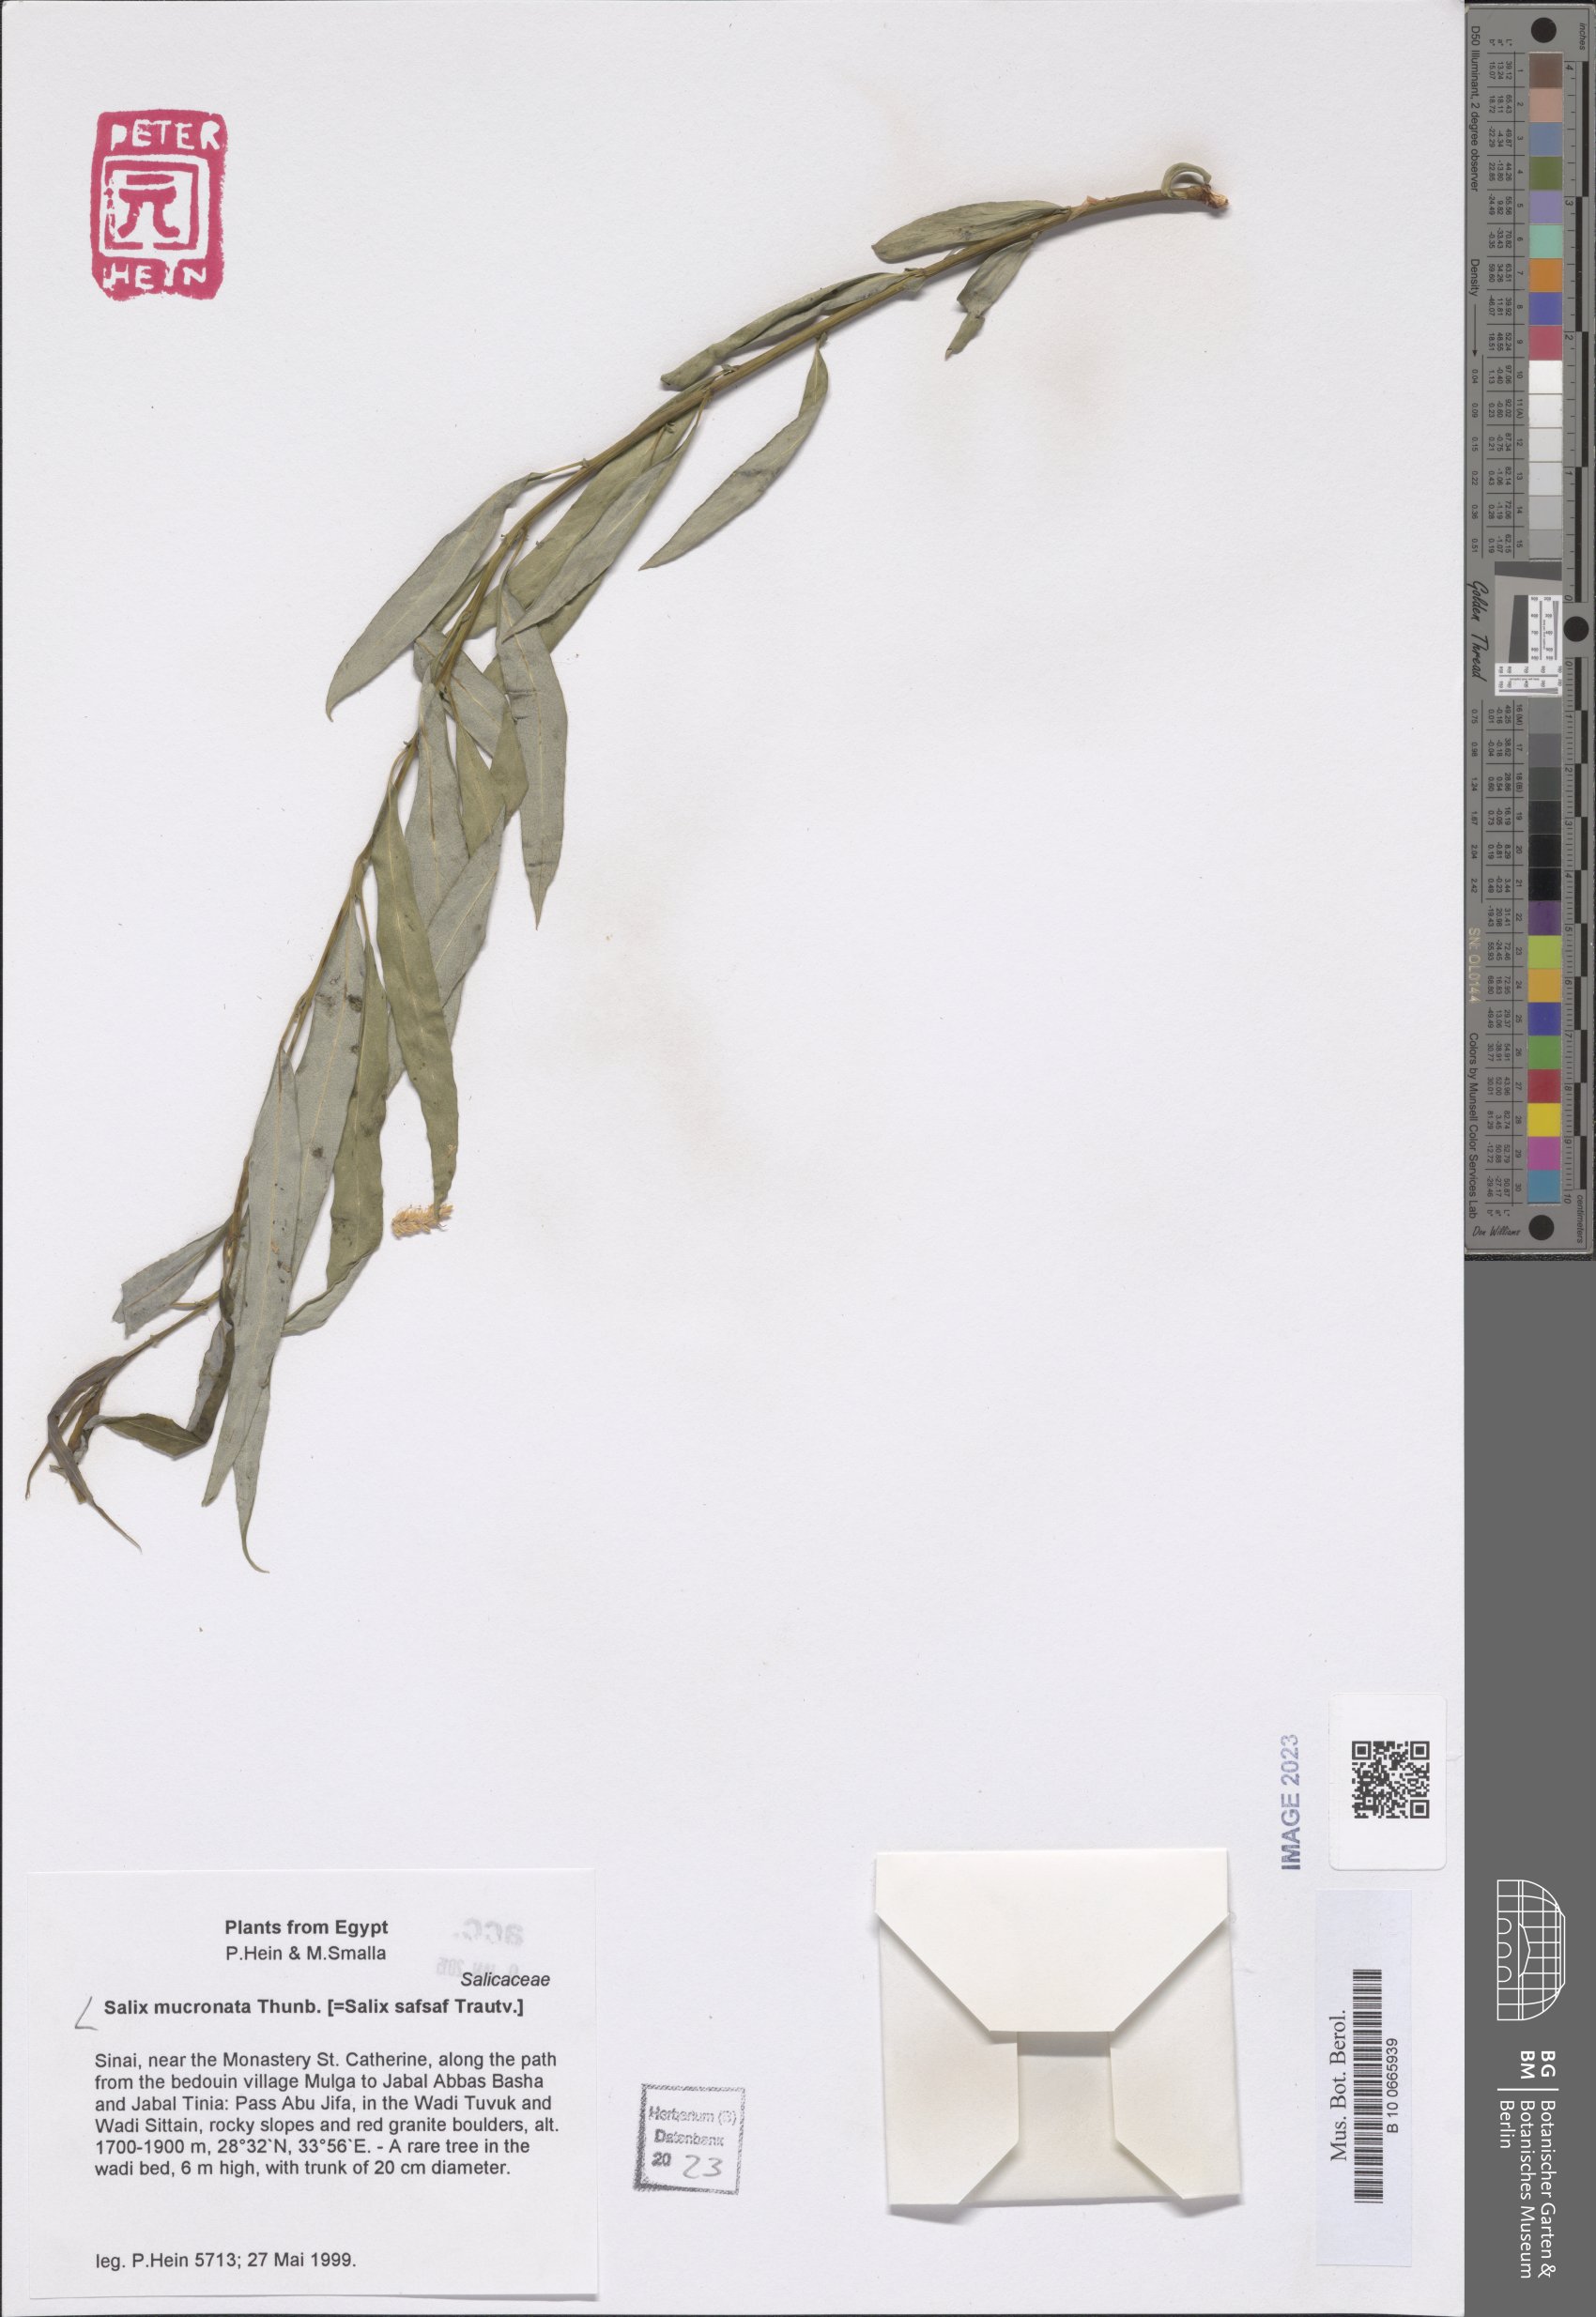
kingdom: Plantae
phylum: Tracheophyta
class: Magnoliopsida
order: Malpighiales
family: Salicaceae
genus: Salix
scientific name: Salix mucronata
